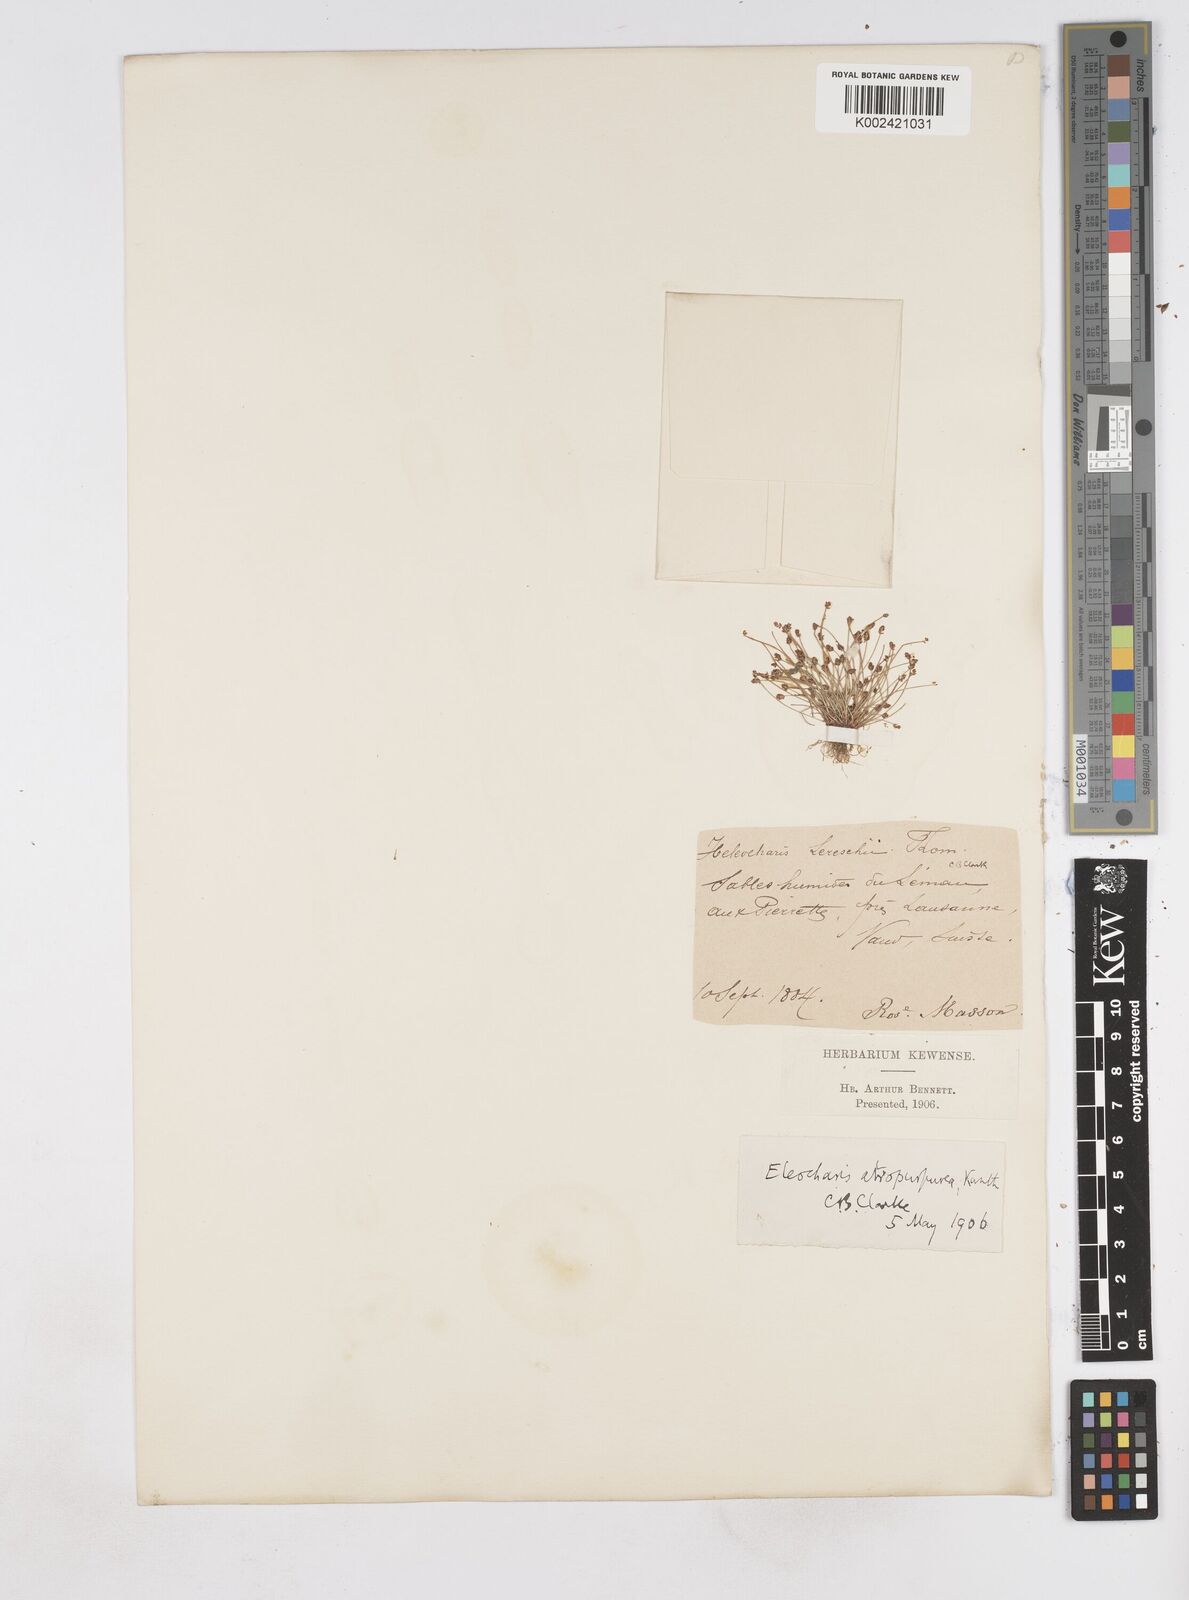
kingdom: Plantae
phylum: Tracheophyta
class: Liliopsida
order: Poales
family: Cyperaceae
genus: Eleocharis
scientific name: Eleocharis atropurpurea
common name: Purple spikerush
